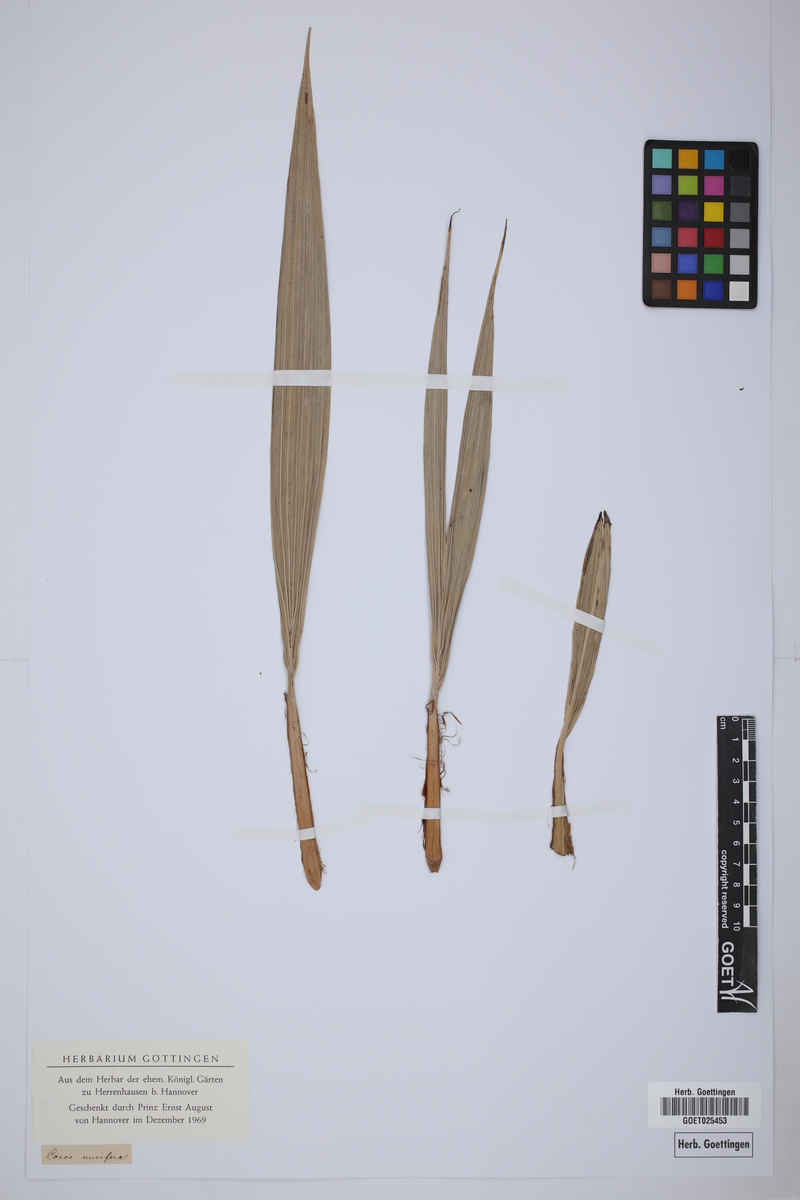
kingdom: Plantae
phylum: Tracheophyta
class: Liliopsida
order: Arecales
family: Arecaceae
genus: Cocos
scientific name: Cocos nucifera
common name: Coconut palm
